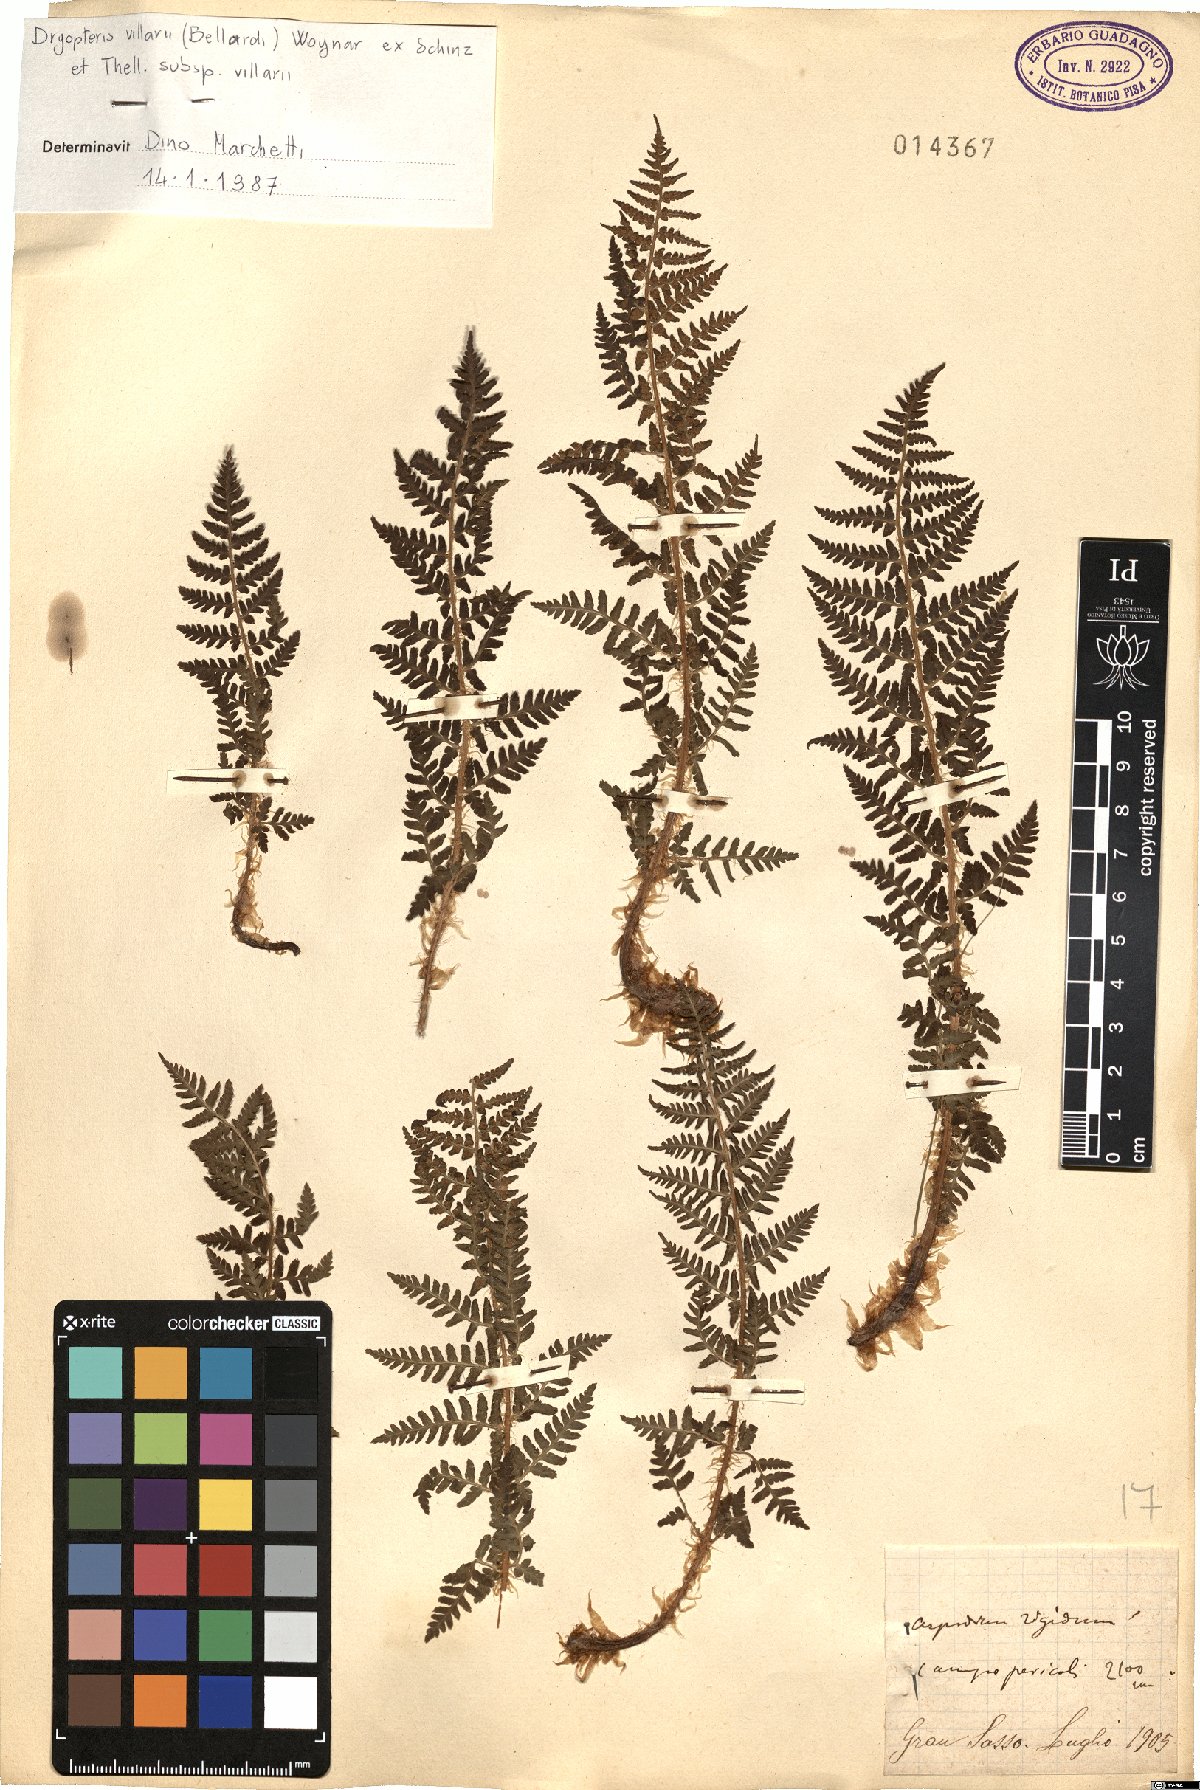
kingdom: Plantae
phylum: Tracheophyta
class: Polypodiopsida
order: Polypodiales
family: Dryopteridaceae
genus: Dryopteris
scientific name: Dryopteris villarii
